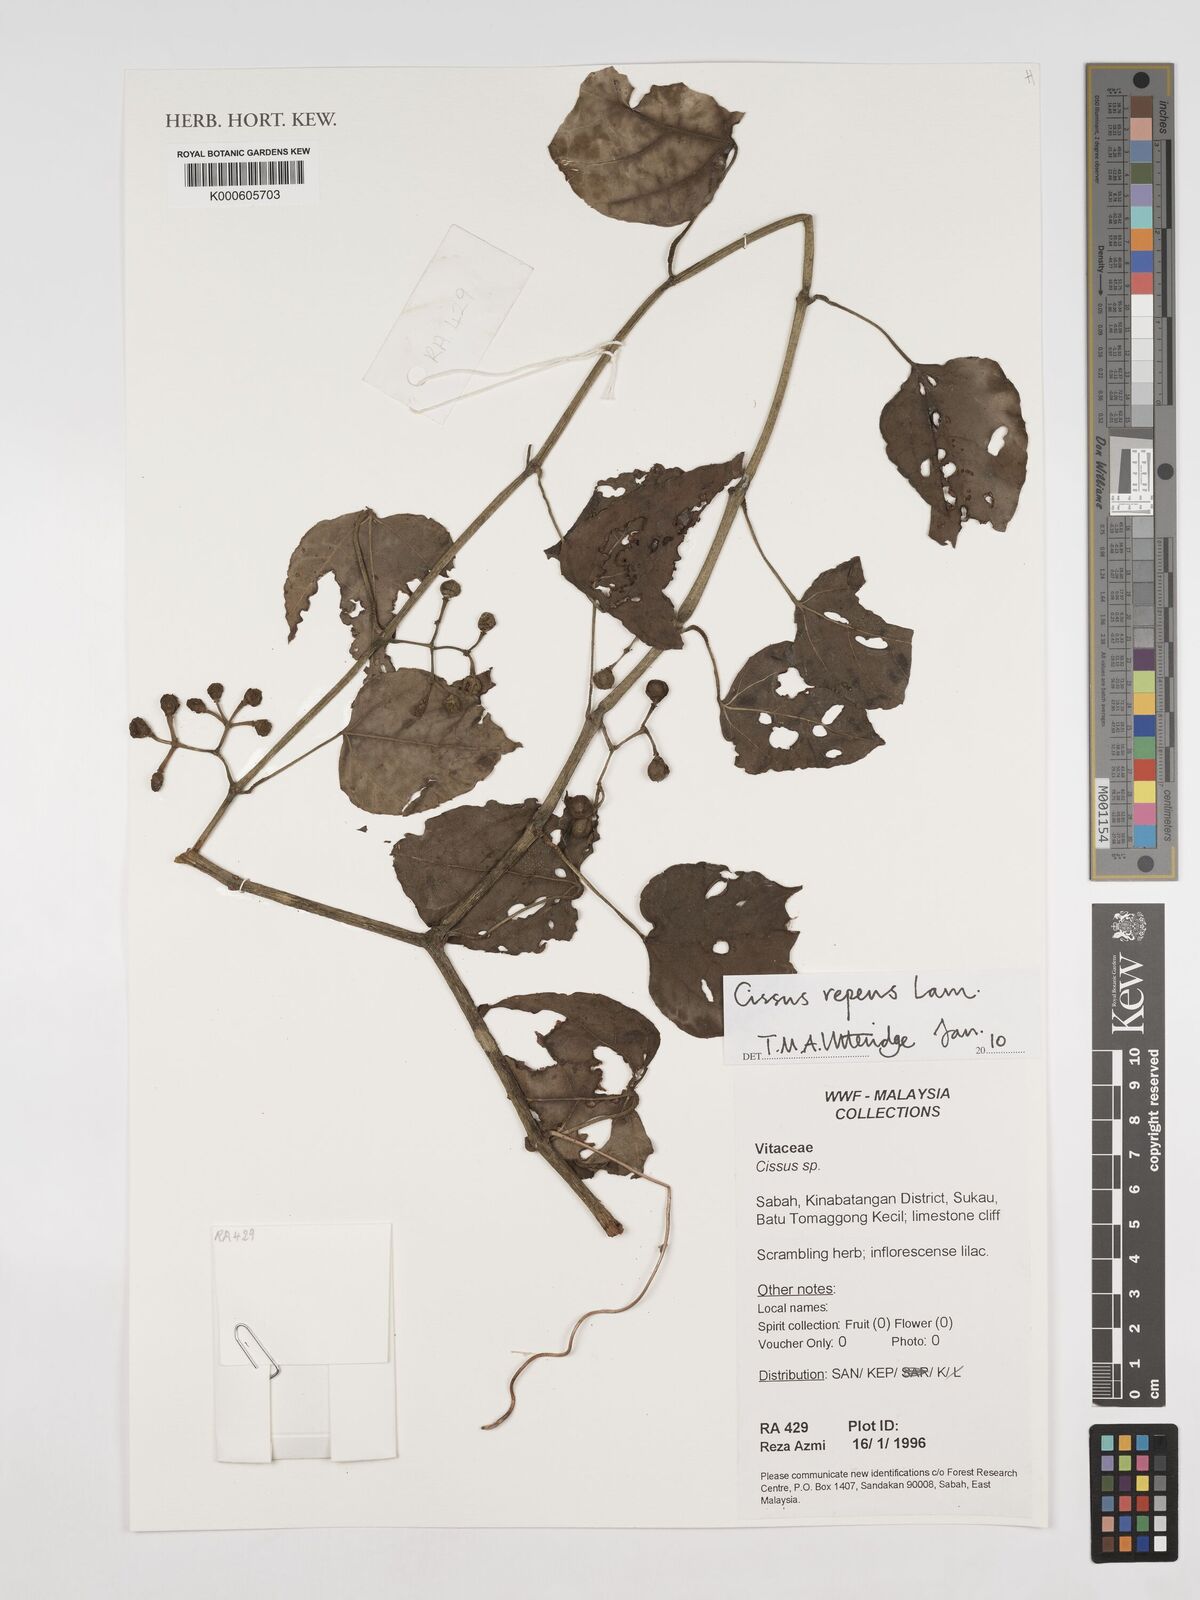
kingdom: Plantae
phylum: Tracheophyta
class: Magnoliopsida
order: Vitales
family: Vitaceae
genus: Cissus
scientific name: Cissus repens
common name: Cissus
